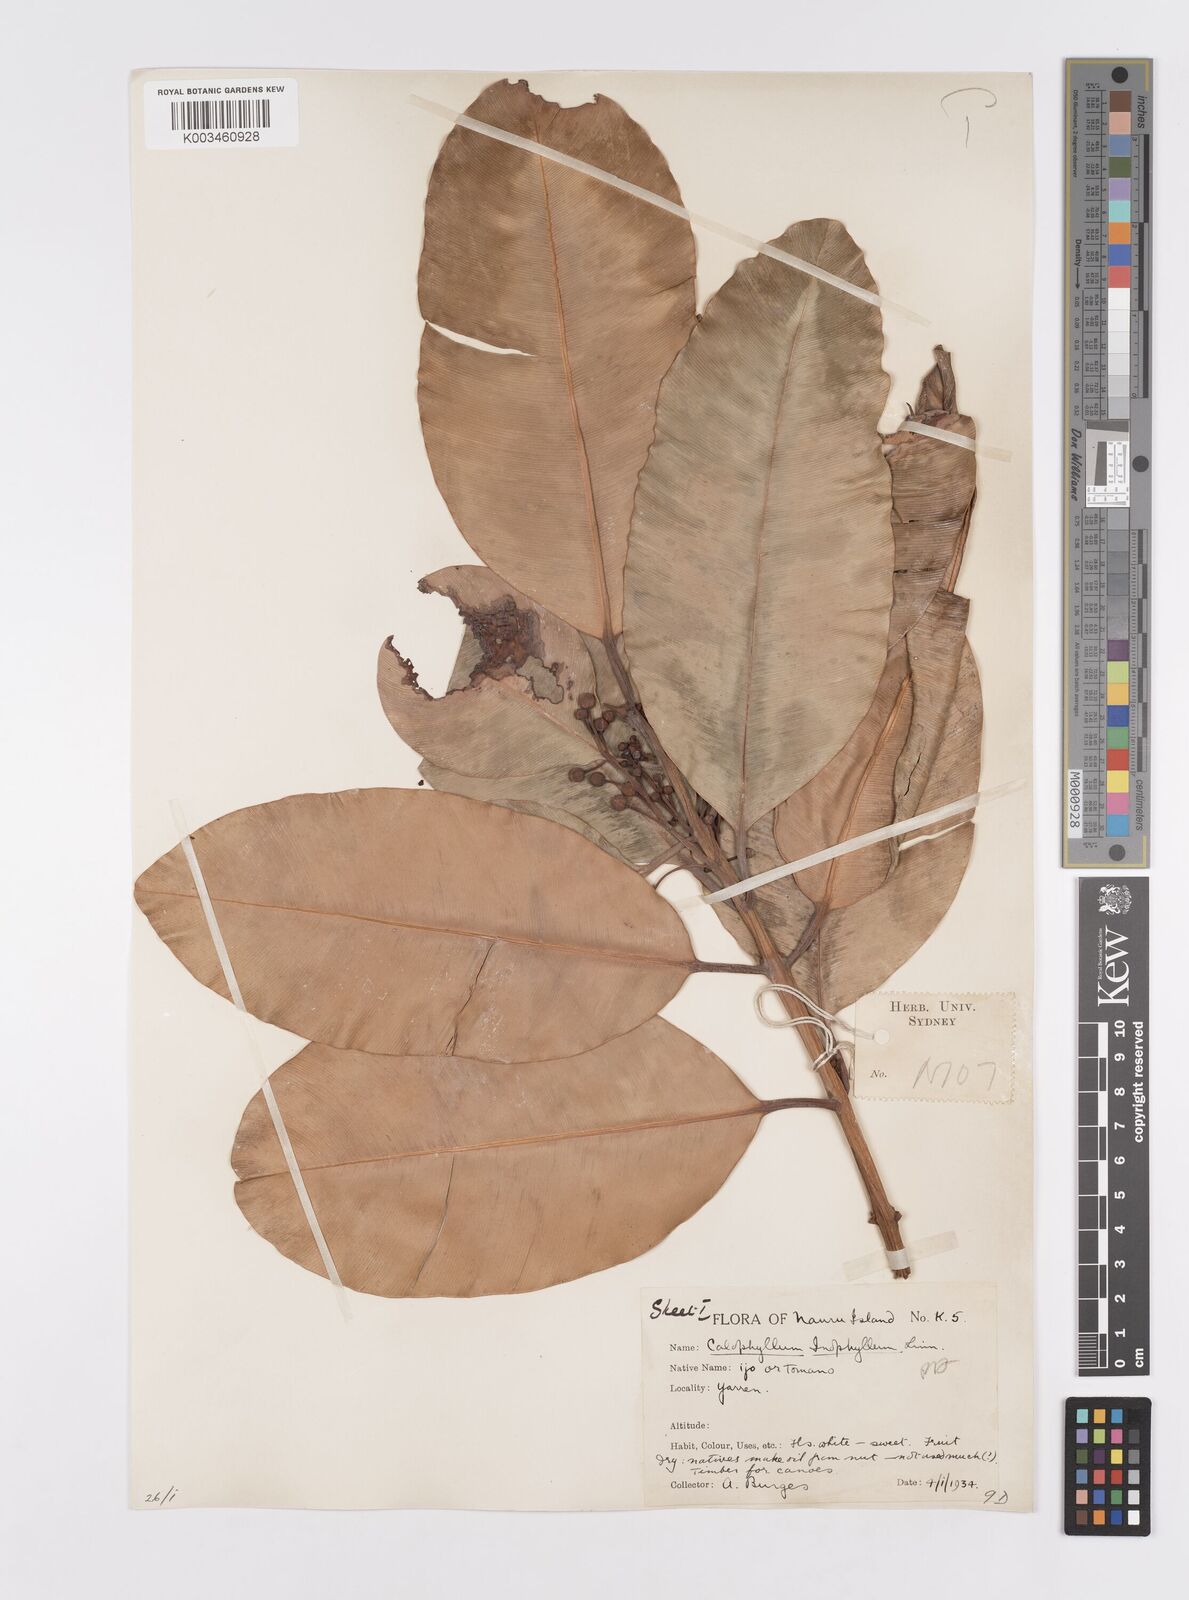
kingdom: Plantae
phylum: Tracheophyta
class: Magnoliopsida
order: Malpighiales
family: Calophyllaceae
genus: Calophyllum
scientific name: Calophyllum inophyllum
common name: Alexandrian laurel
